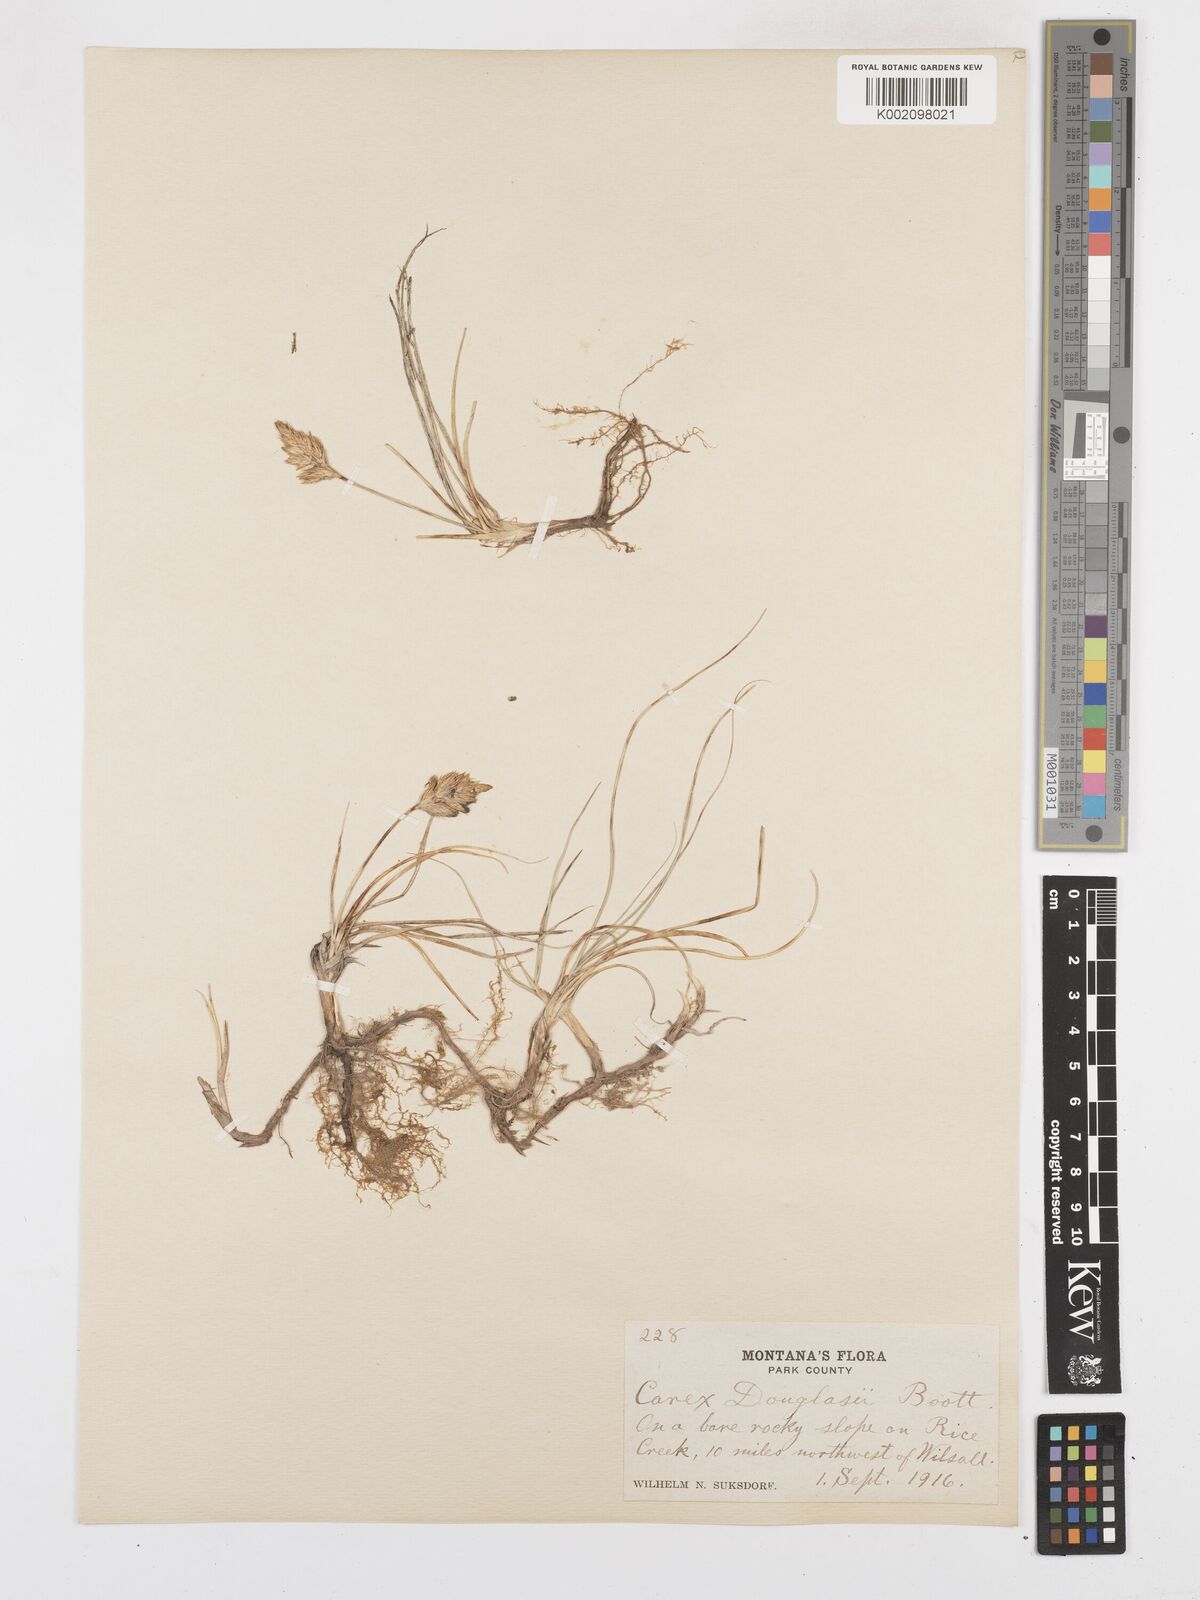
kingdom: Plantae
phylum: Tracheophyta
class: Liliopsida
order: Poales
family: Cyperaceae
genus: Carex
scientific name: Carex douglasii
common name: Douglas' sedge
